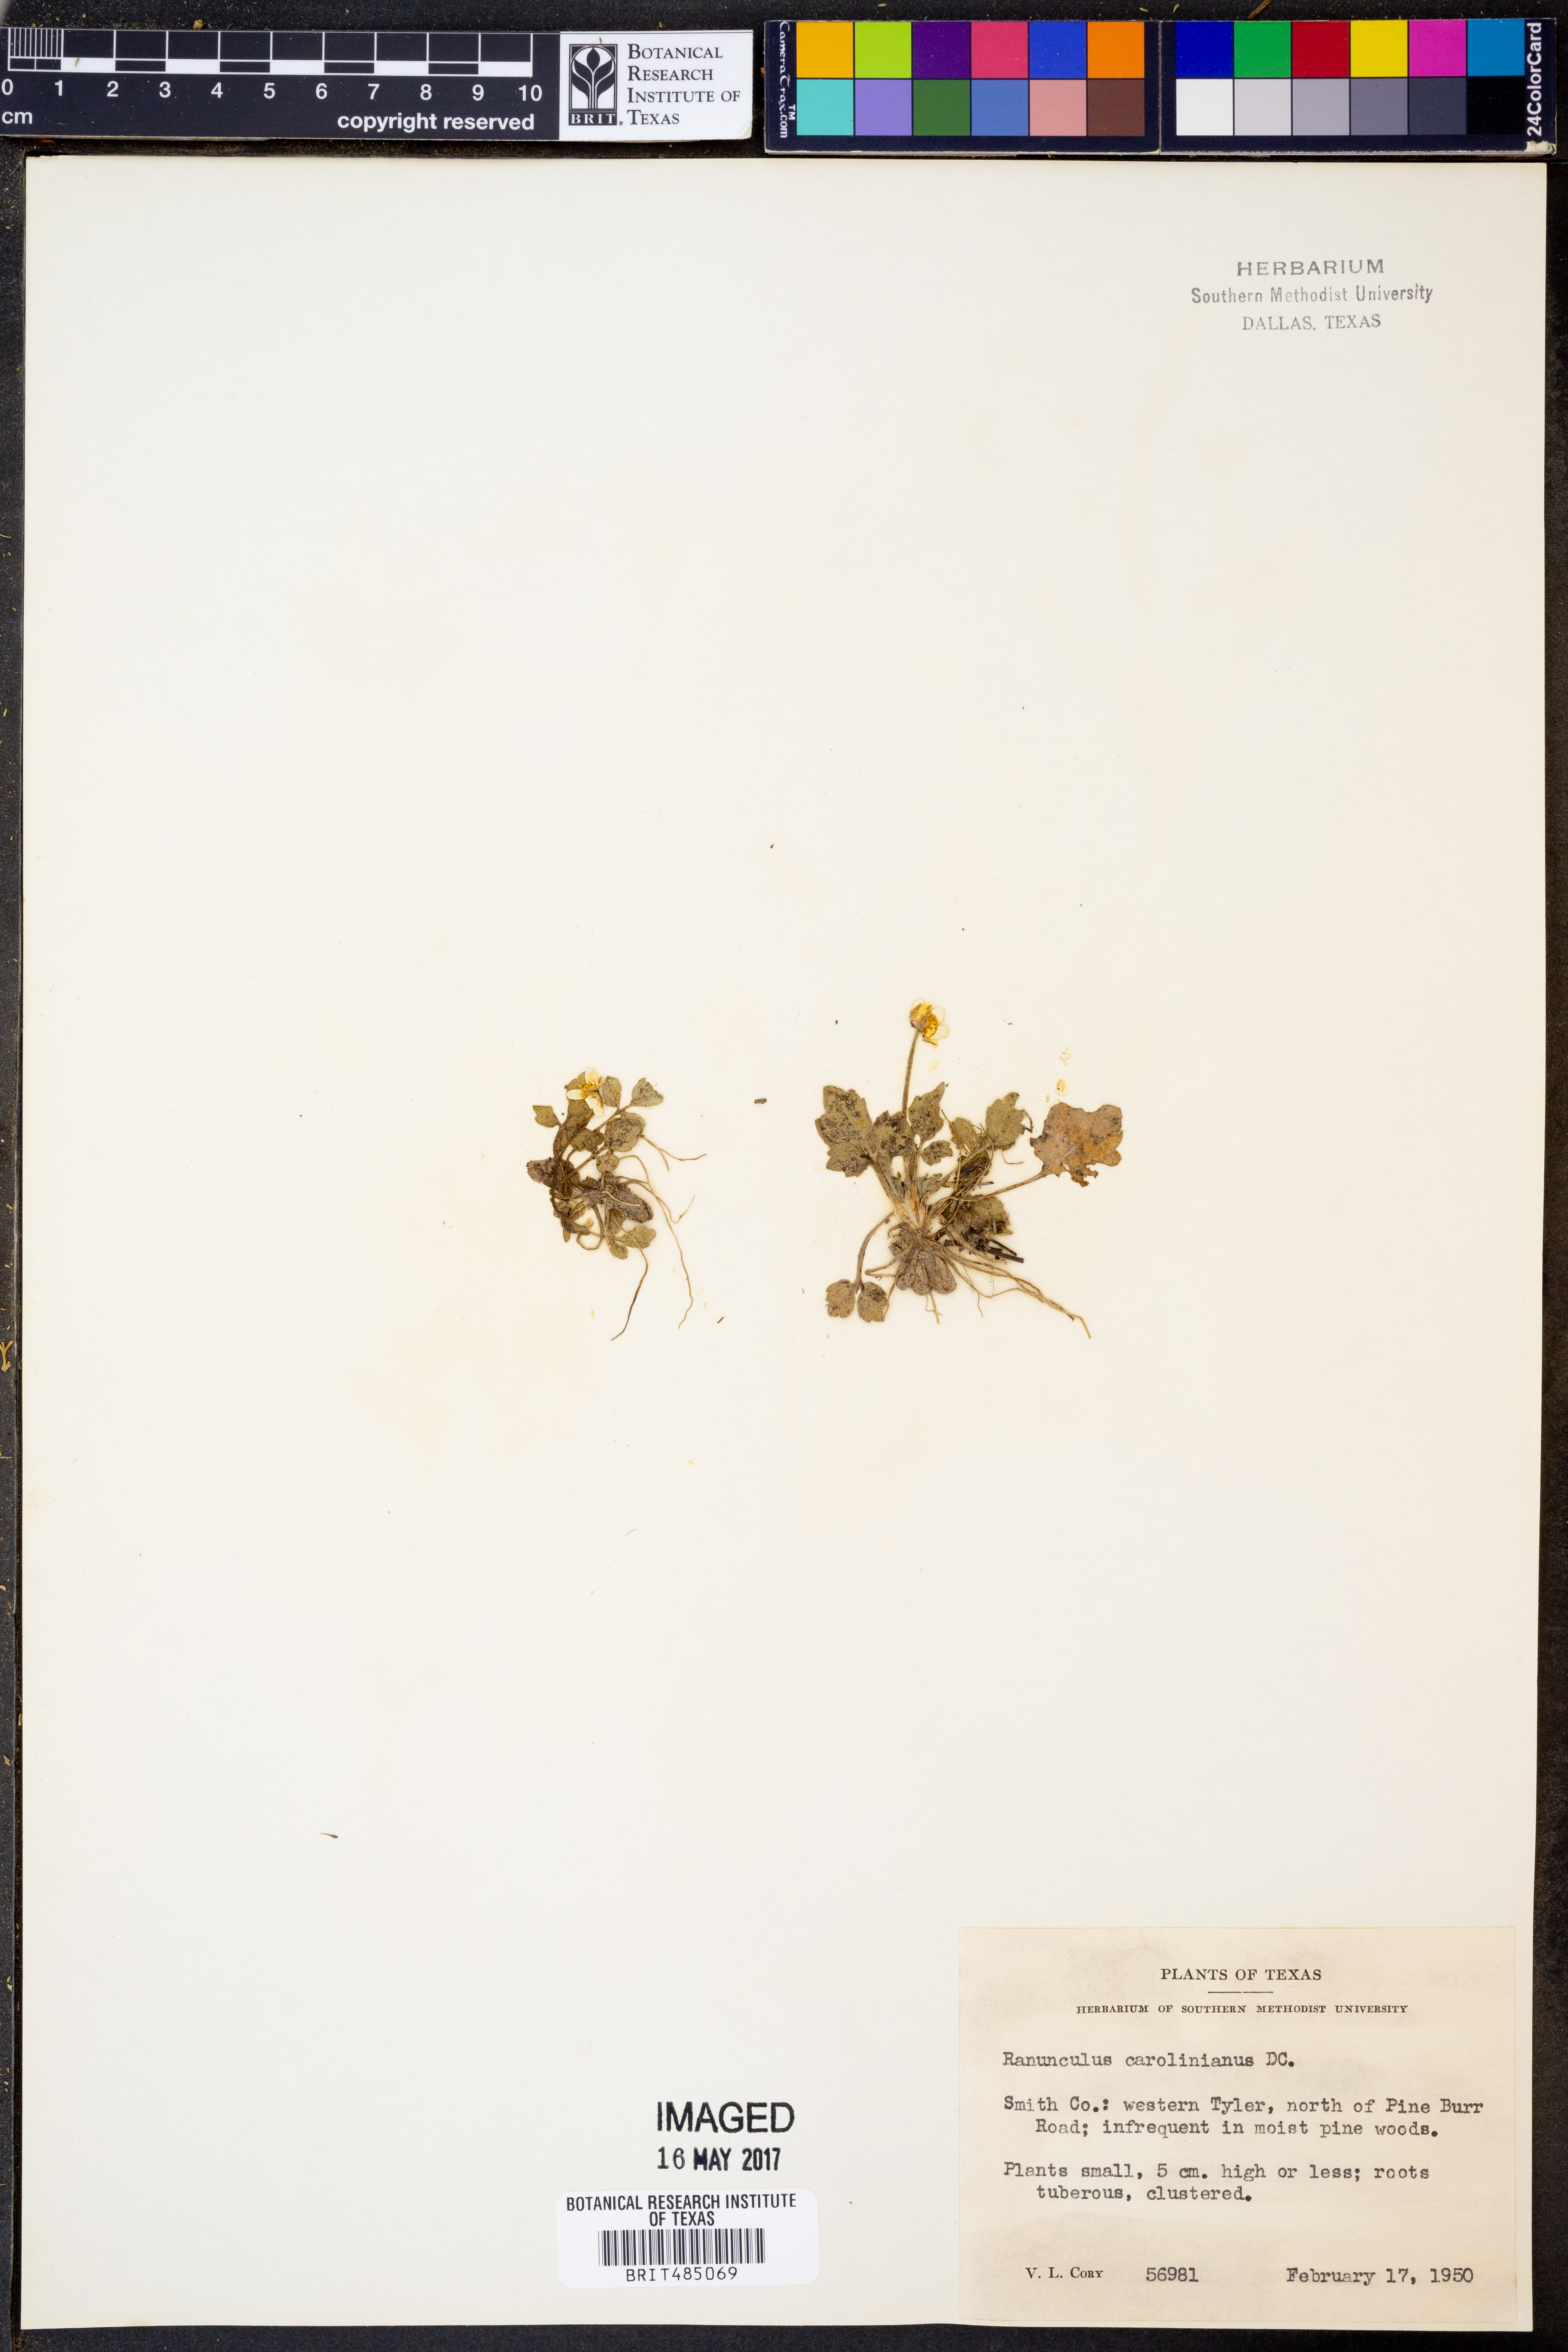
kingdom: Plantae
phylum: Tracheophyta
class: Magnoliopsida
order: Ranunculales
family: Ranunculaceae
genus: Ranunculus
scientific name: Ranunculus hispidus
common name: Bristly buttercup
